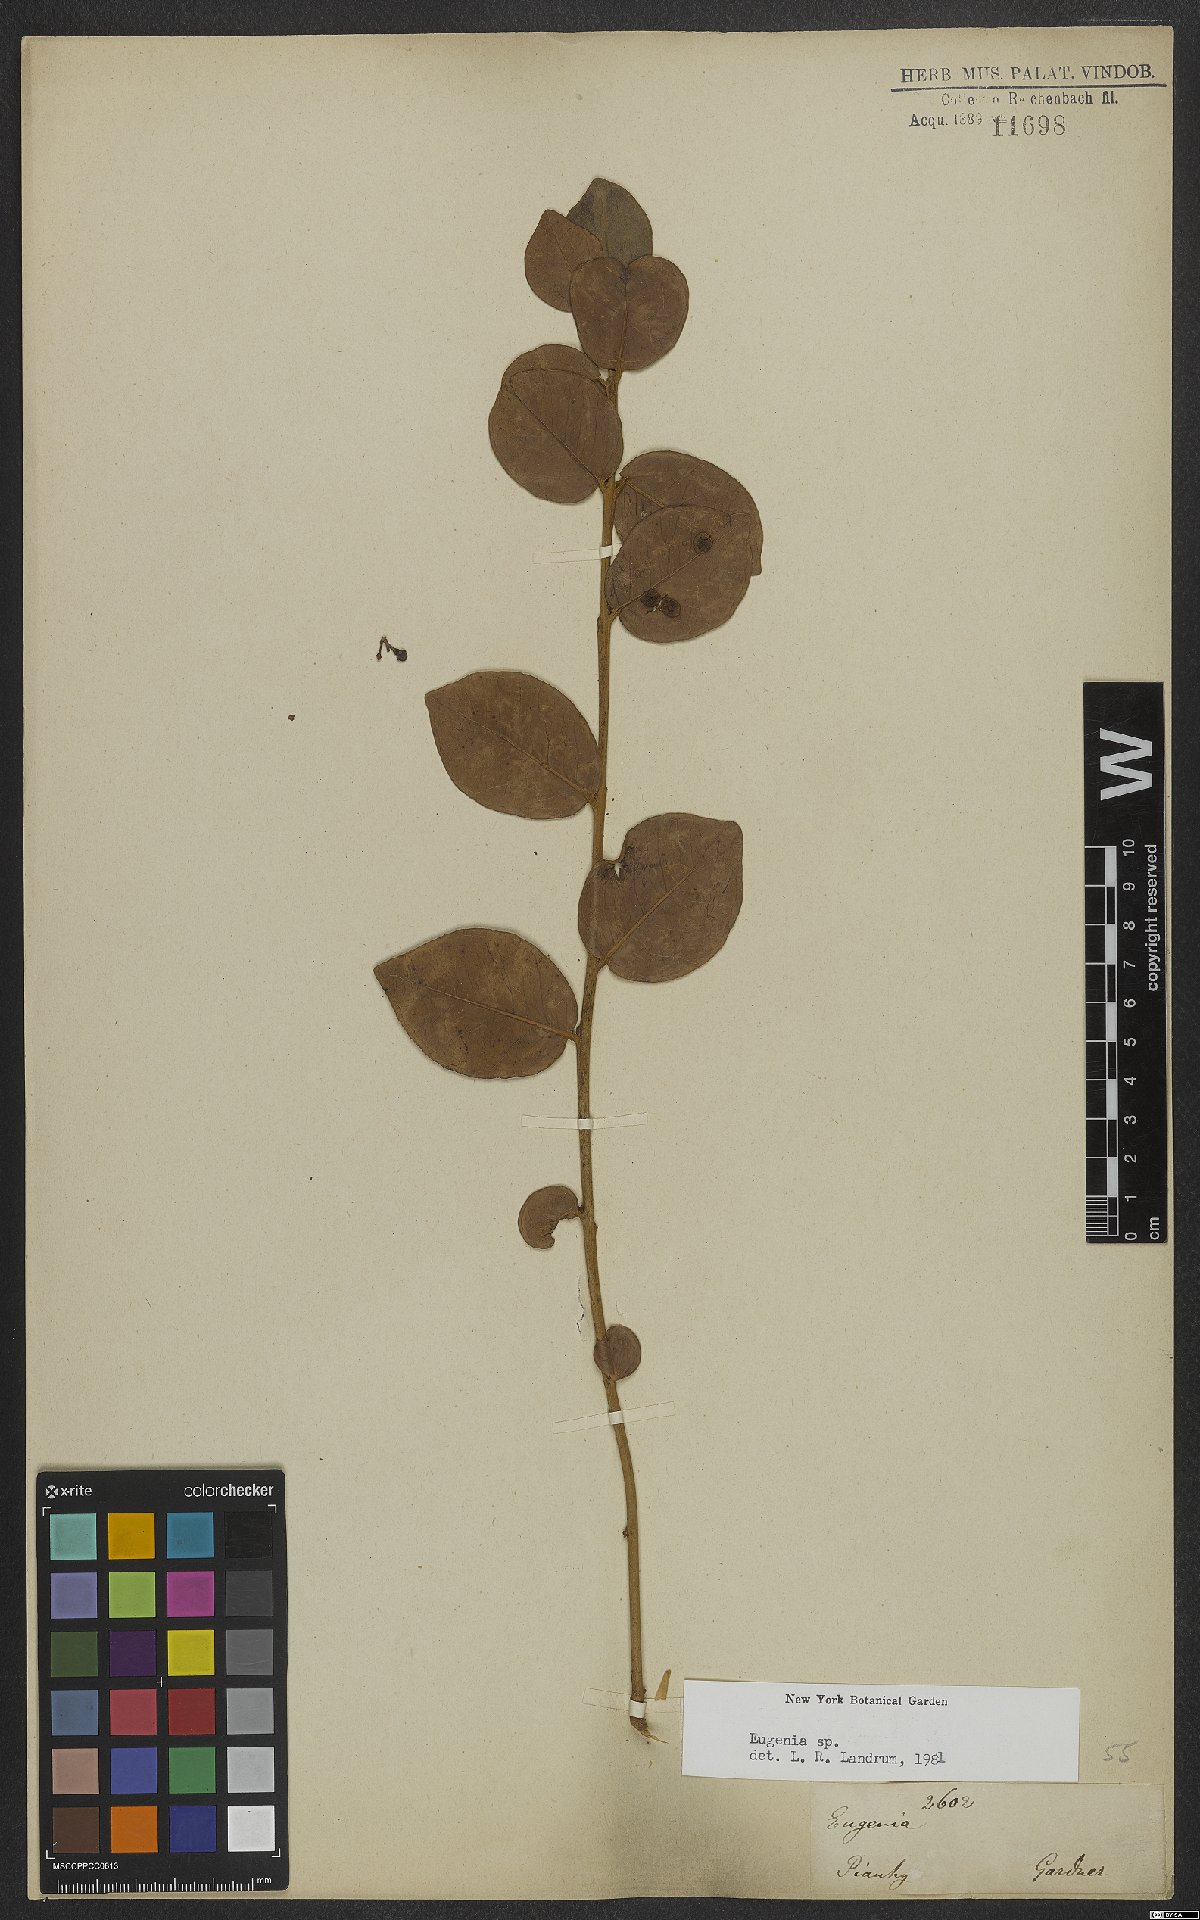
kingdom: Plantae
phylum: Tracheophyta
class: Magnoliopsida
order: Myrtales
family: Myrtaceae
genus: Eugenia
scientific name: Eugenia
